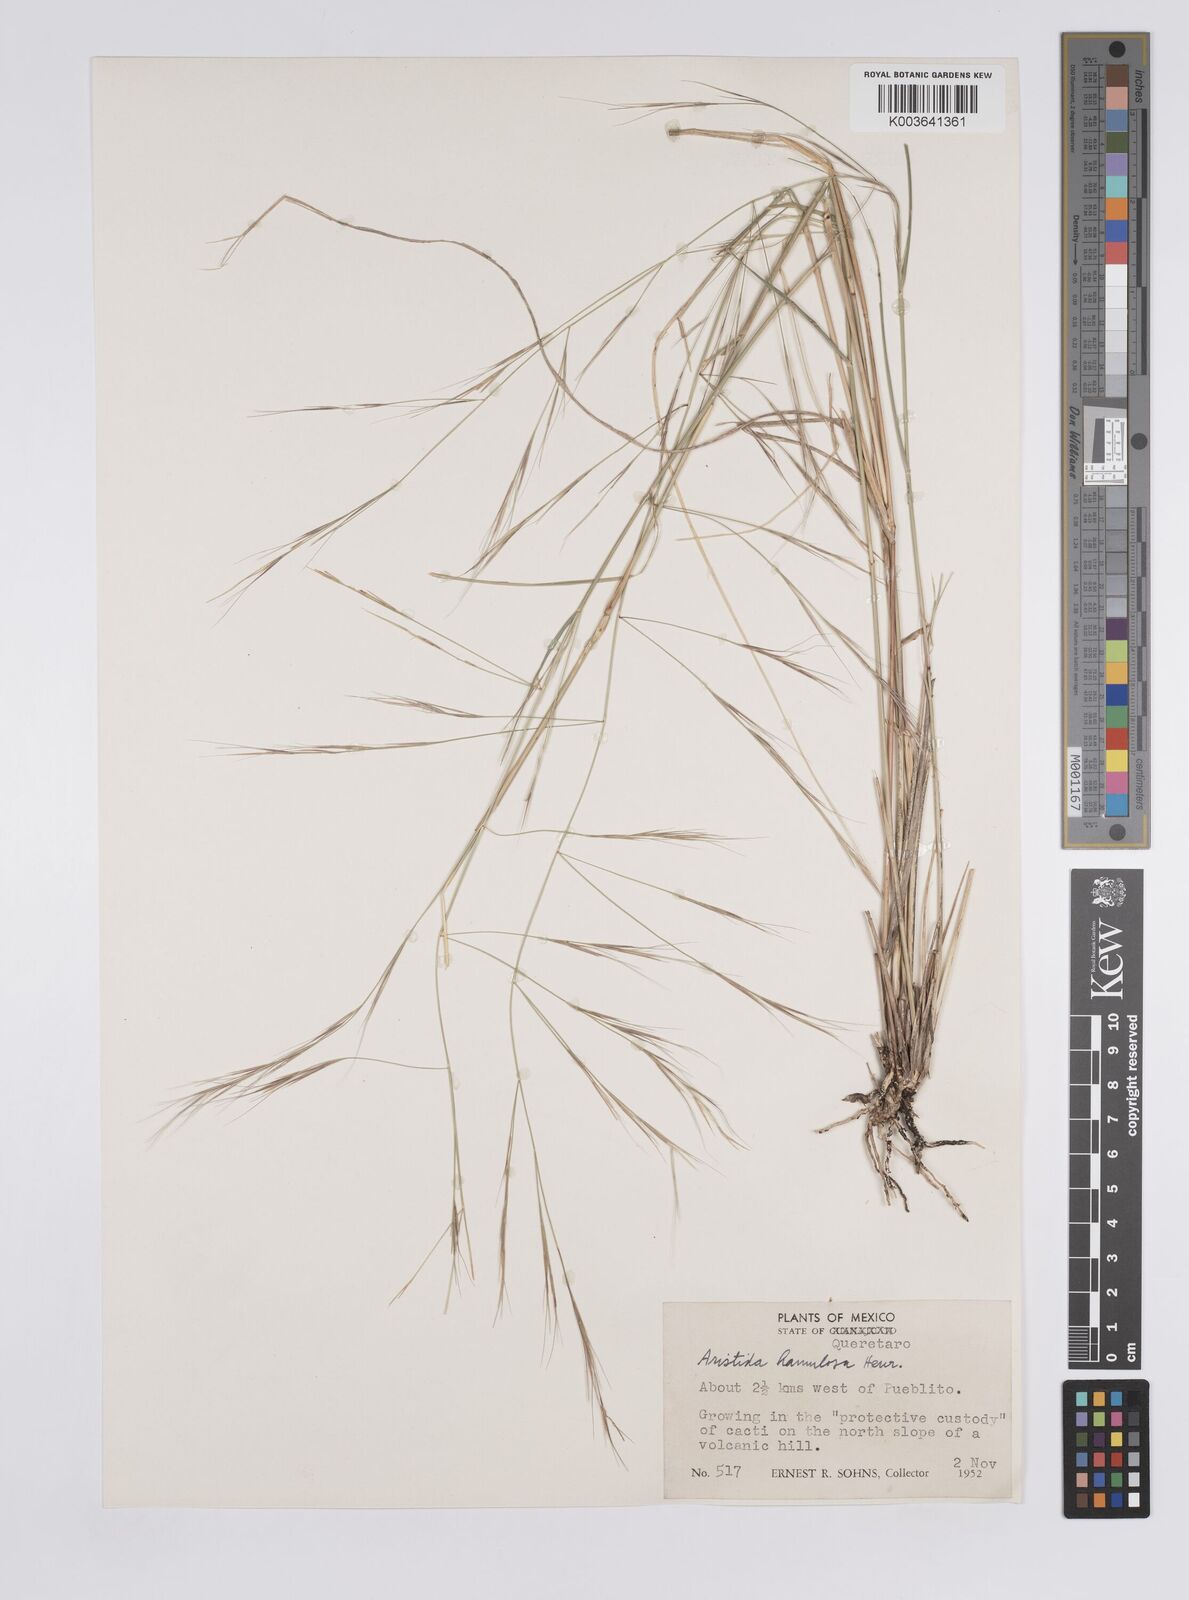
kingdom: Plantae
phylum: Tracheophyta
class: Liliopsida
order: Poales
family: Poaceae
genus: Aristida
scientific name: Aristida hamulosa
